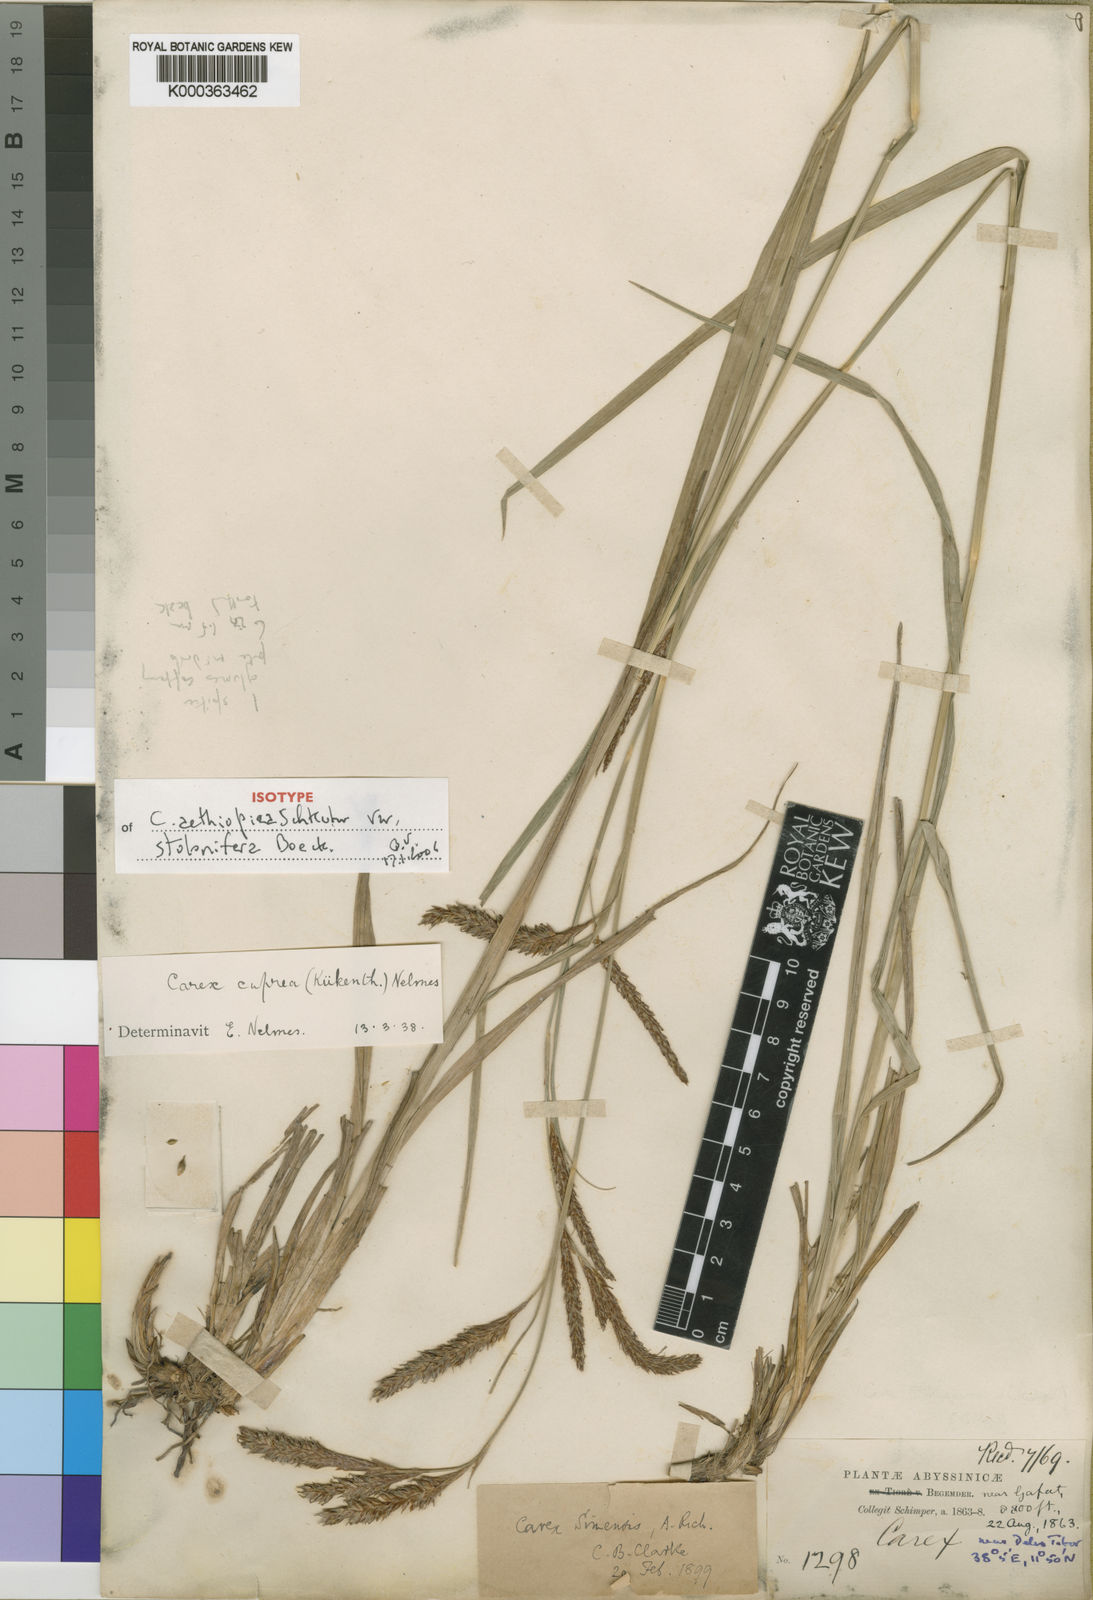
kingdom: Plantae
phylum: Tracheophyta
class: Liliopsida
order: Poales
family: Cyperaceae
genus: Carex
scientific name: Carex petitiana
